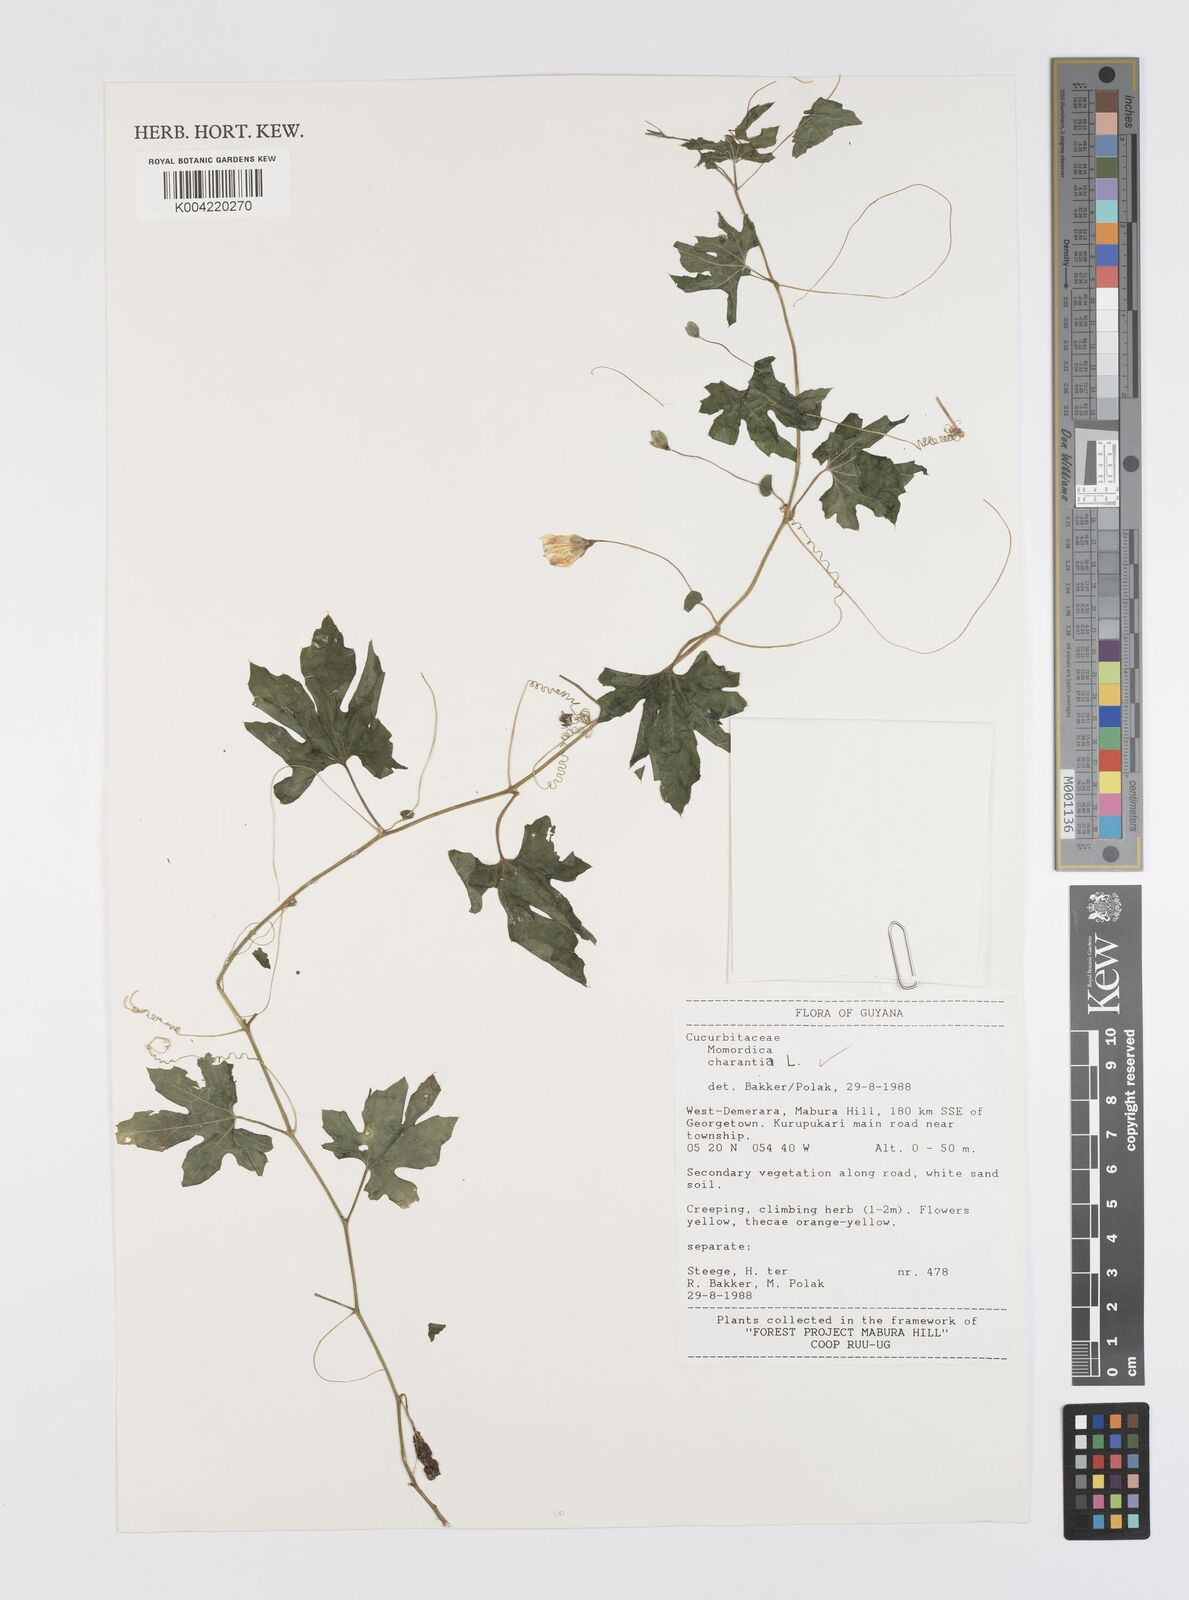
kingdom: Plantae
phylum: Tracheophyta
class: Magnoliopsida
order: Cucurbitales
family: Cucurbitaceae
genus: Momordica
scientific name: Momordica charantia
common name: Balsampear
